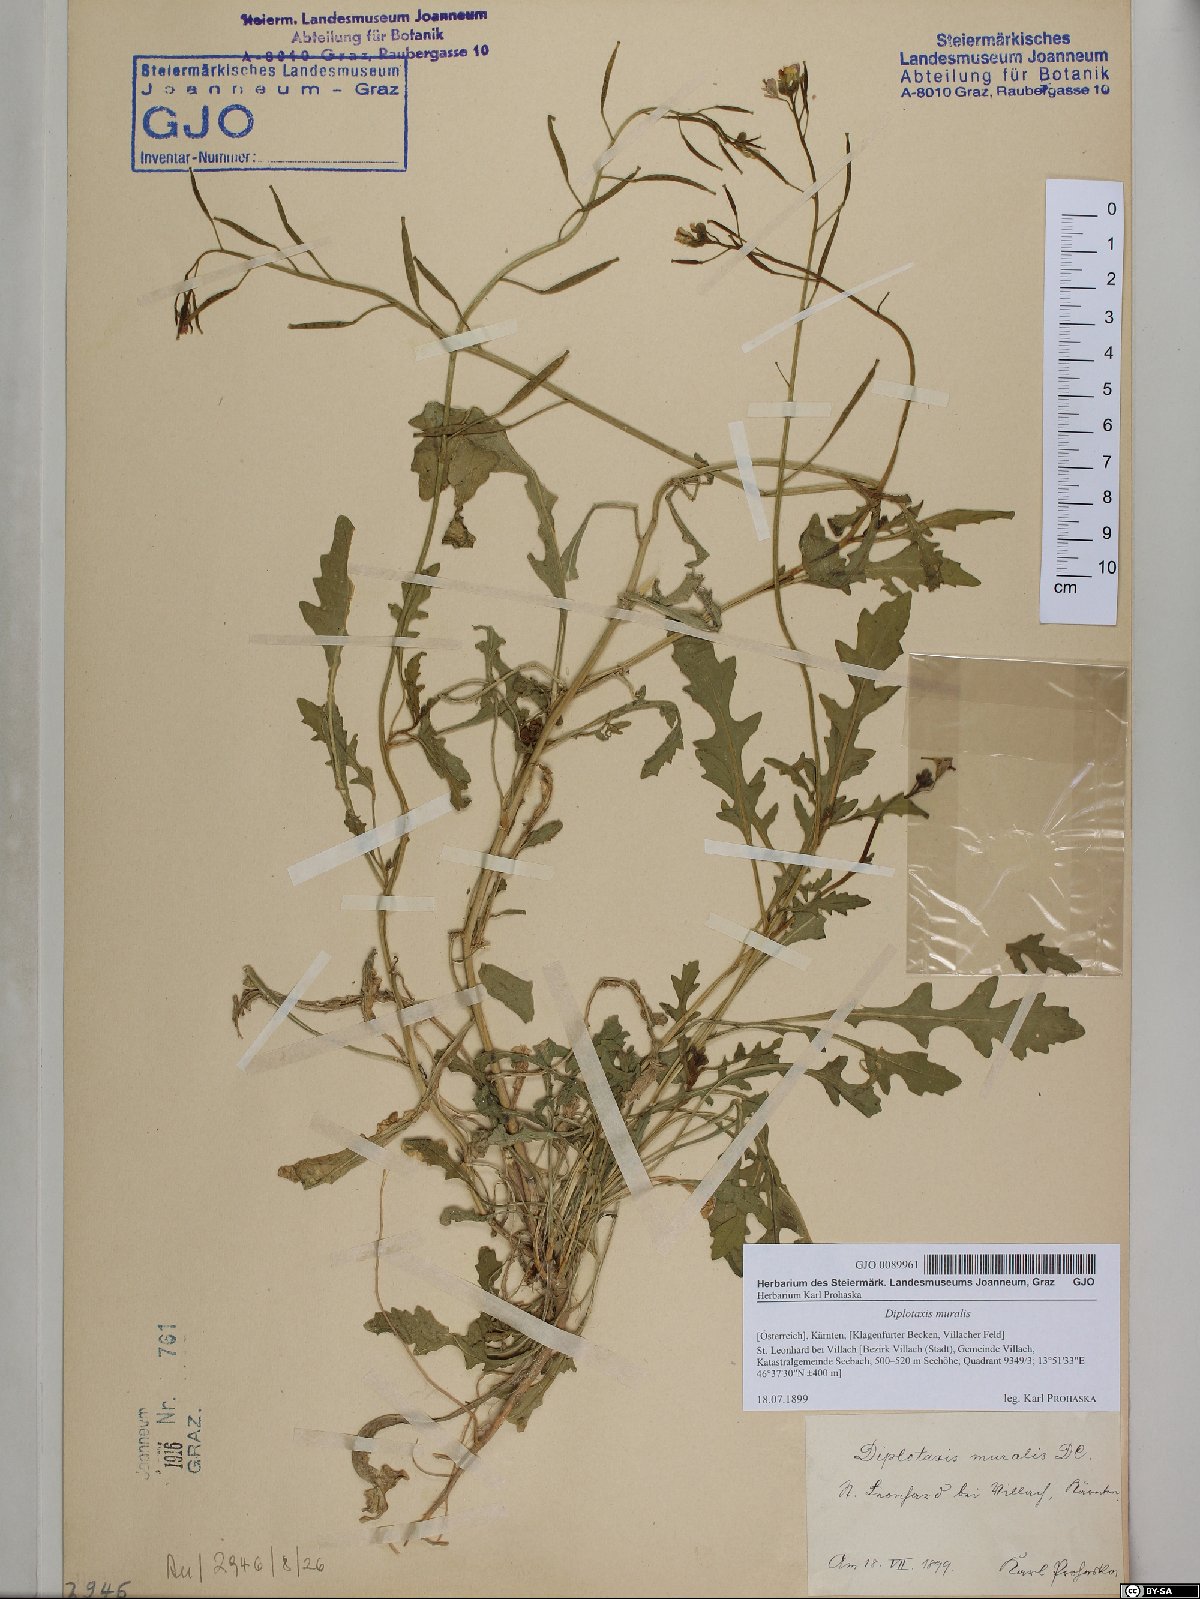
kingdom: Plantae
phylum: Tracheophyta
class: Magnoliopsida
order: Brassicales
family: Brassicaceae
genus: Diplotaxis
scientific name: Diplotaxis muralis
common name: Annual wall-rocket
